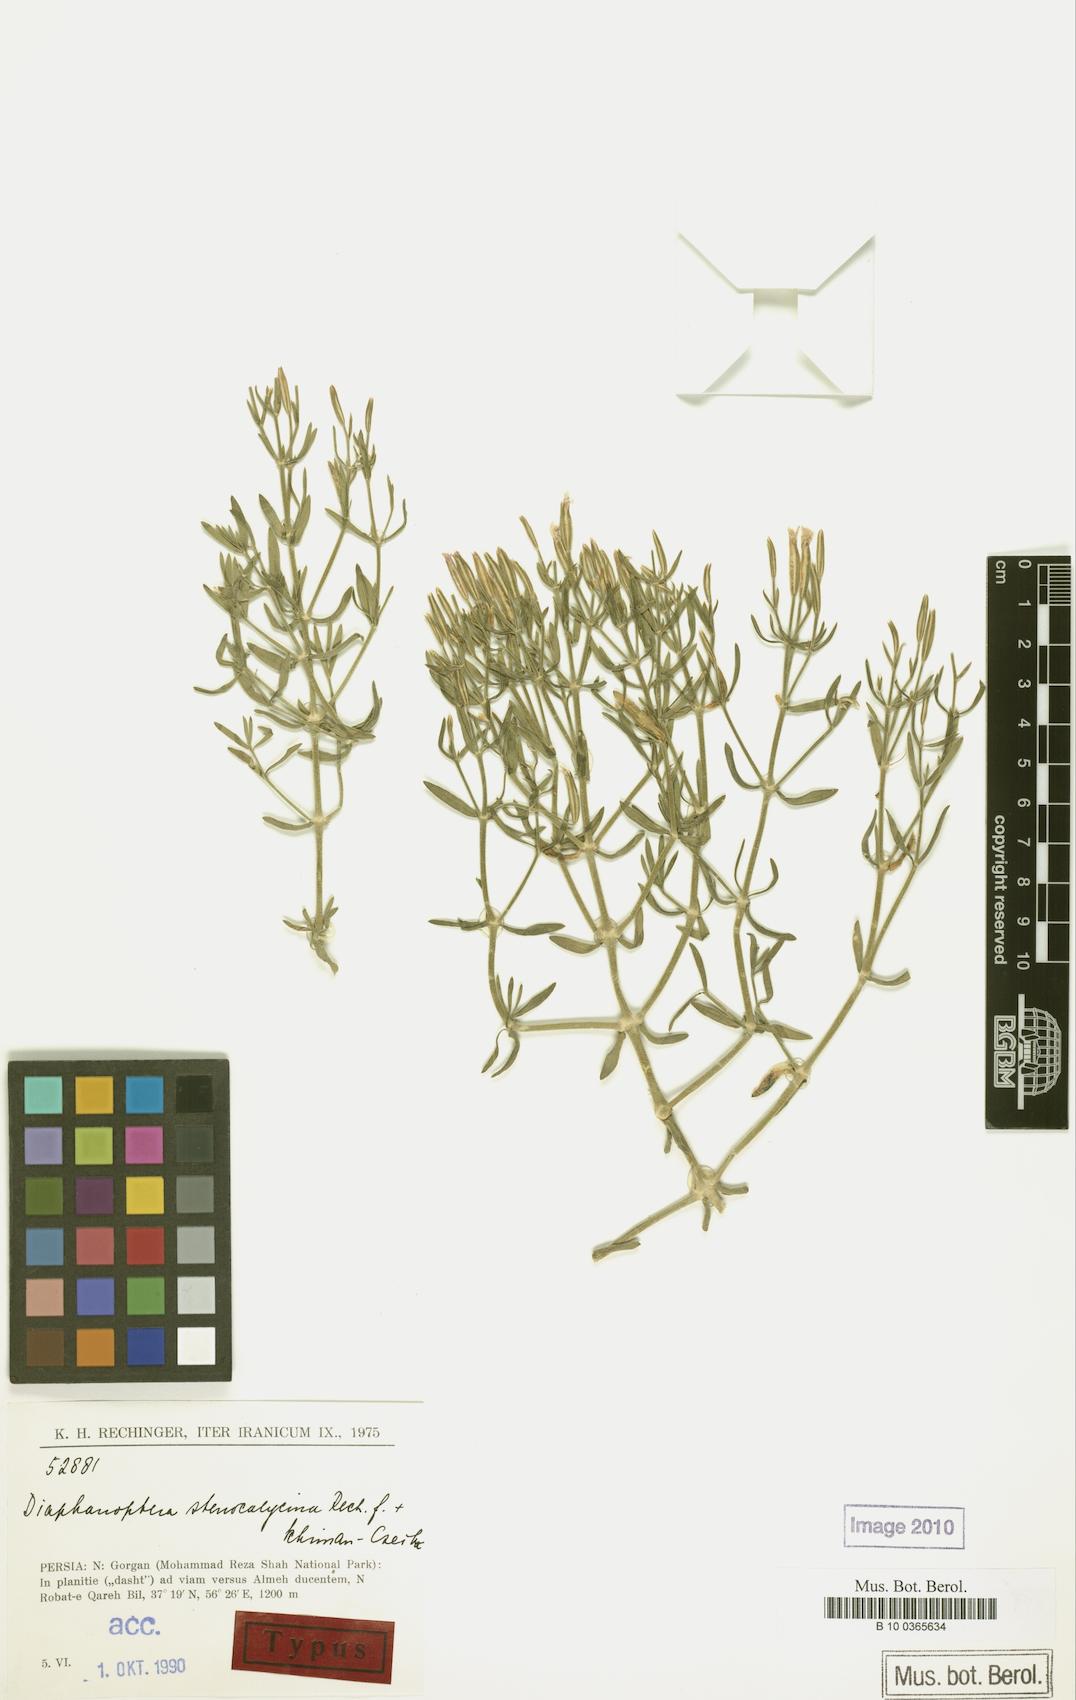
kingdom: Plantae
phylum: Tracheophyta
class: Magnoliopsida
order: Caryophyllales
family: Caryophyllaceae
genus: Acanthophyllum
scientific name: Acanthophyllum stenocalycinum
